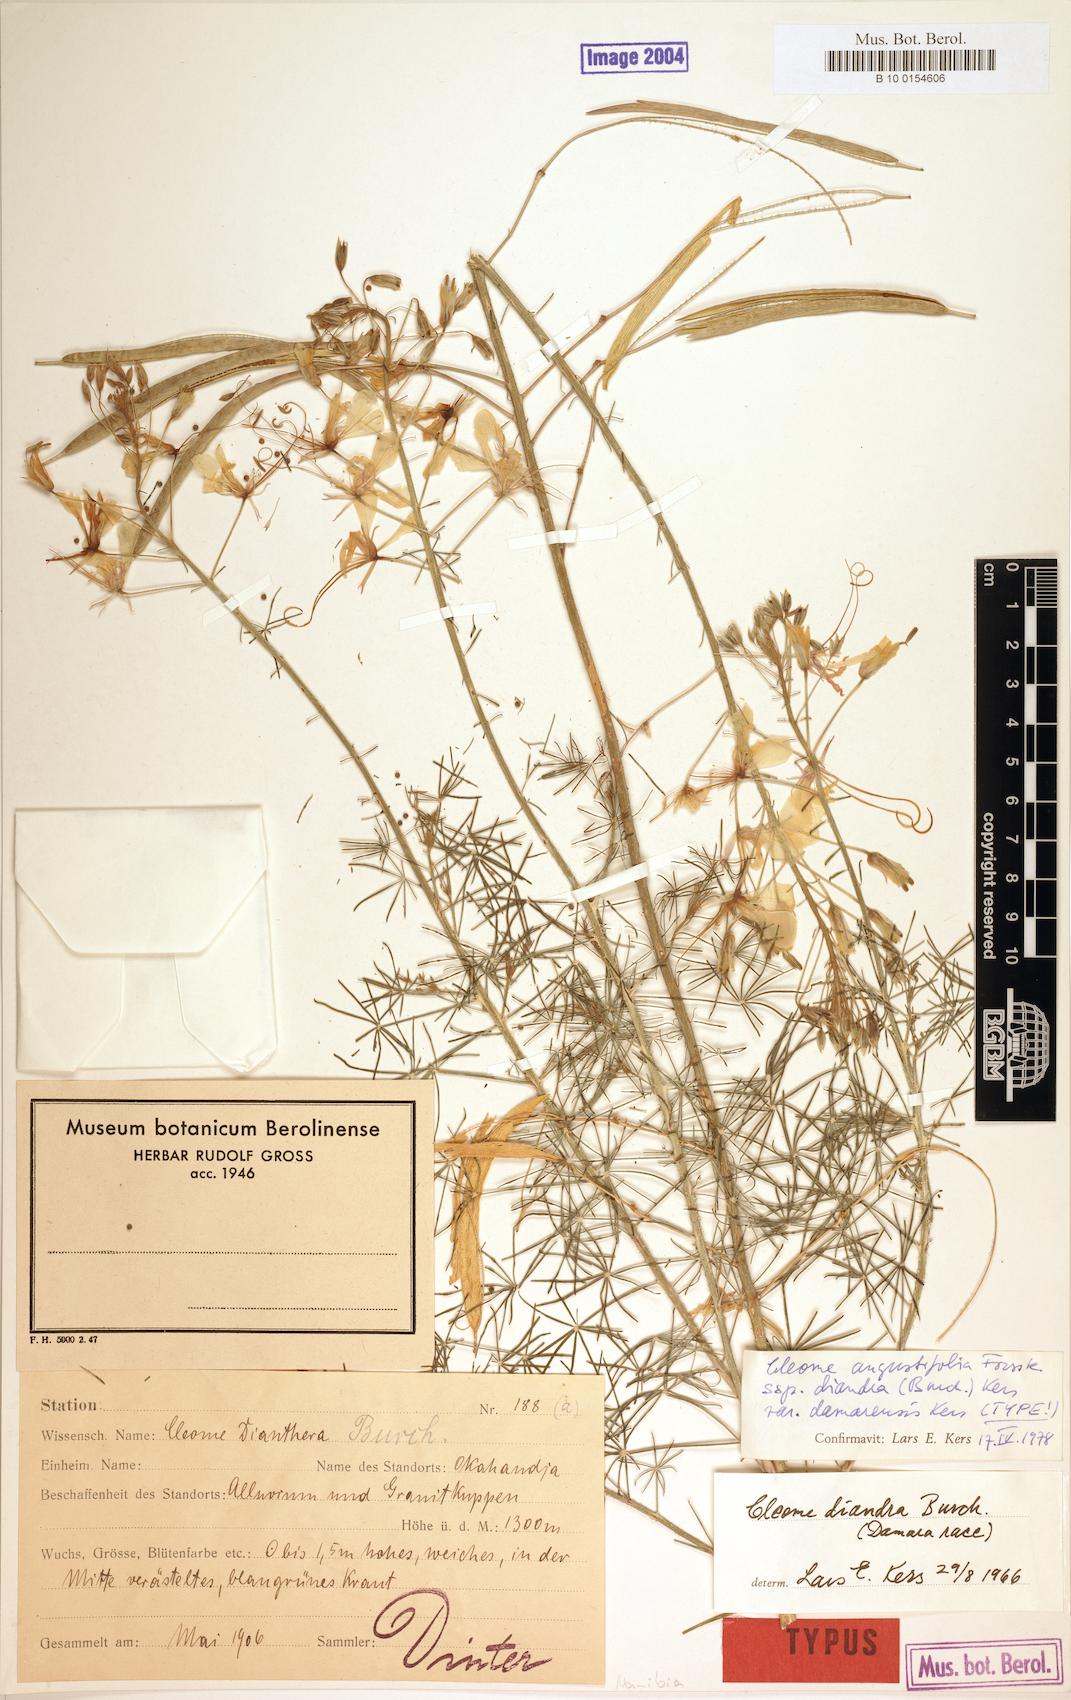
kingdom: Plantae
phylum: Tracheophyta
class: Magnoliopsida
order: Brassicales
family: Cleomaceae
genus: Coalisina
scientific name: Coalisina angustifolia
